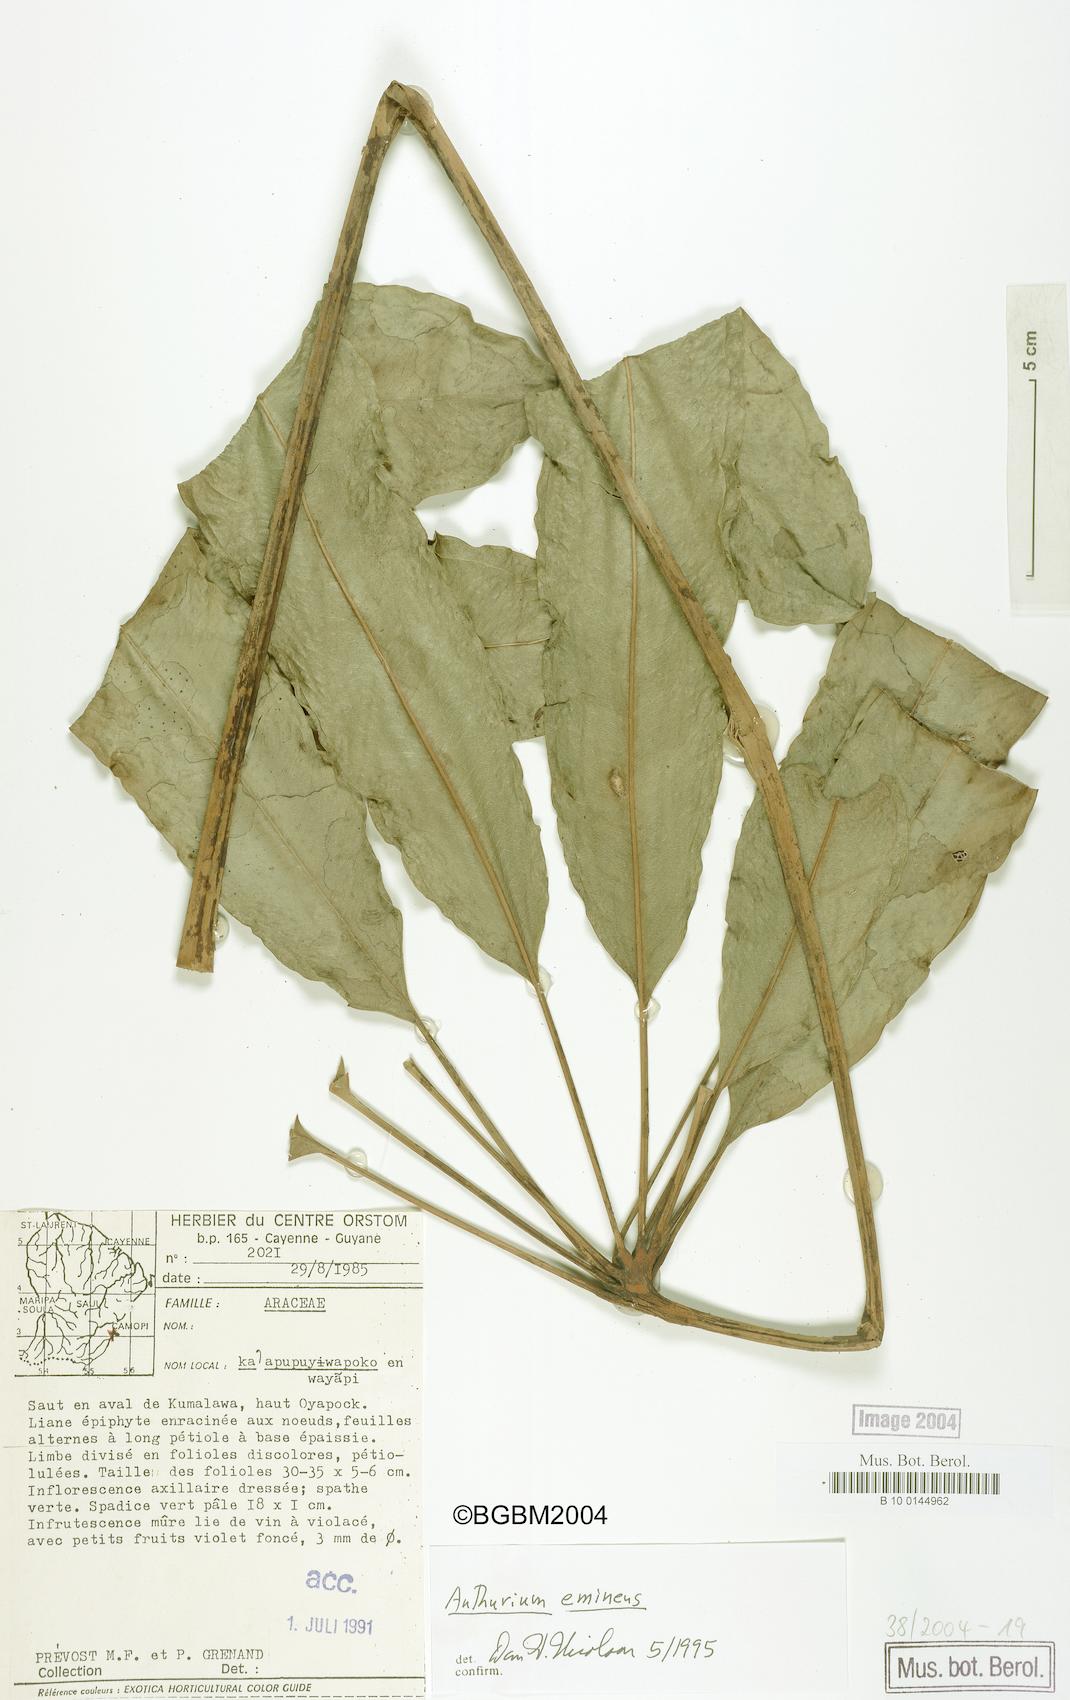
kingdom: Plantae
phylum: Tracheophyta
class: Liliopsida
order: Alismatales
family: Araceae
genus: Anthurium
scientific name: Anthurium eminens
